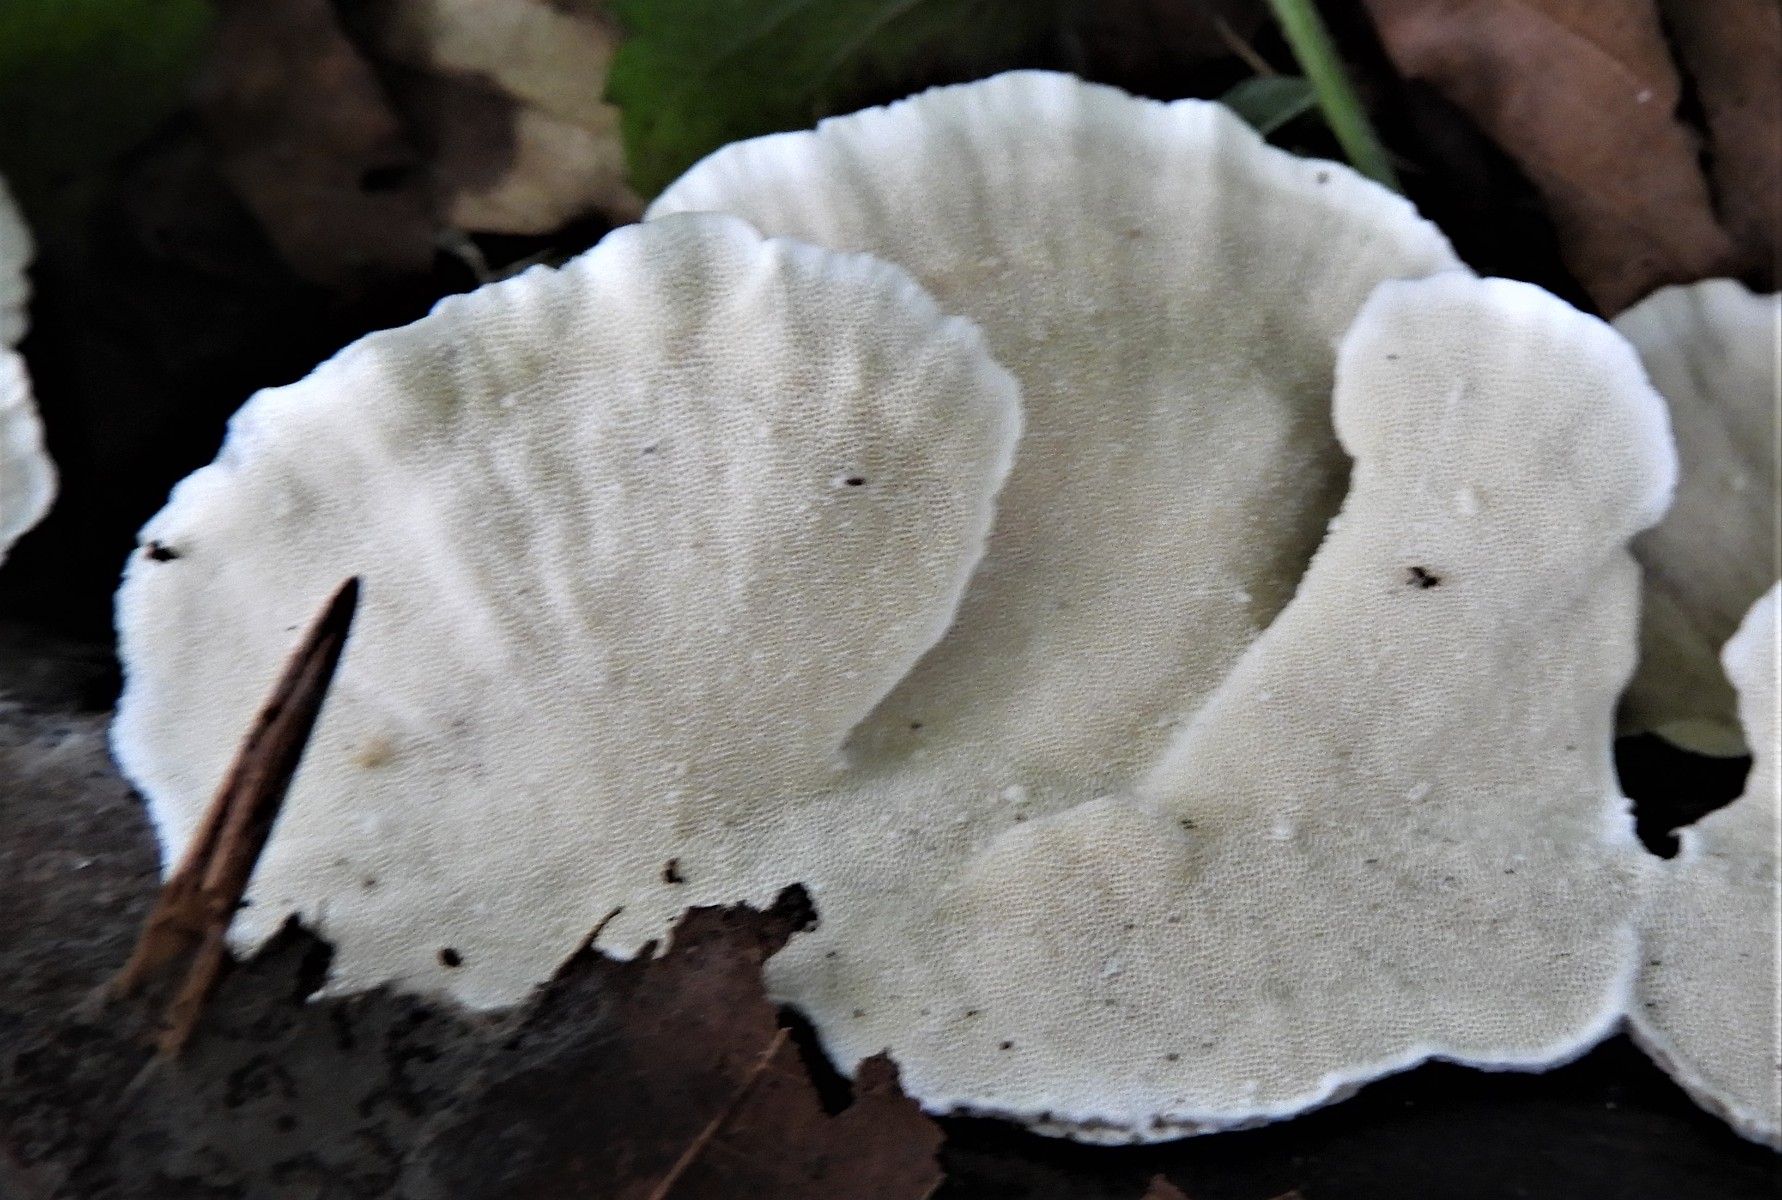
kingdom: Fungi
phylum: Basidiomycota
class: Agaricomycetes
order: Polyporales
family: Polyporaceae
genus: Trametes
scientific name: Trametes versicolor
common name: broget læderporesvamp
